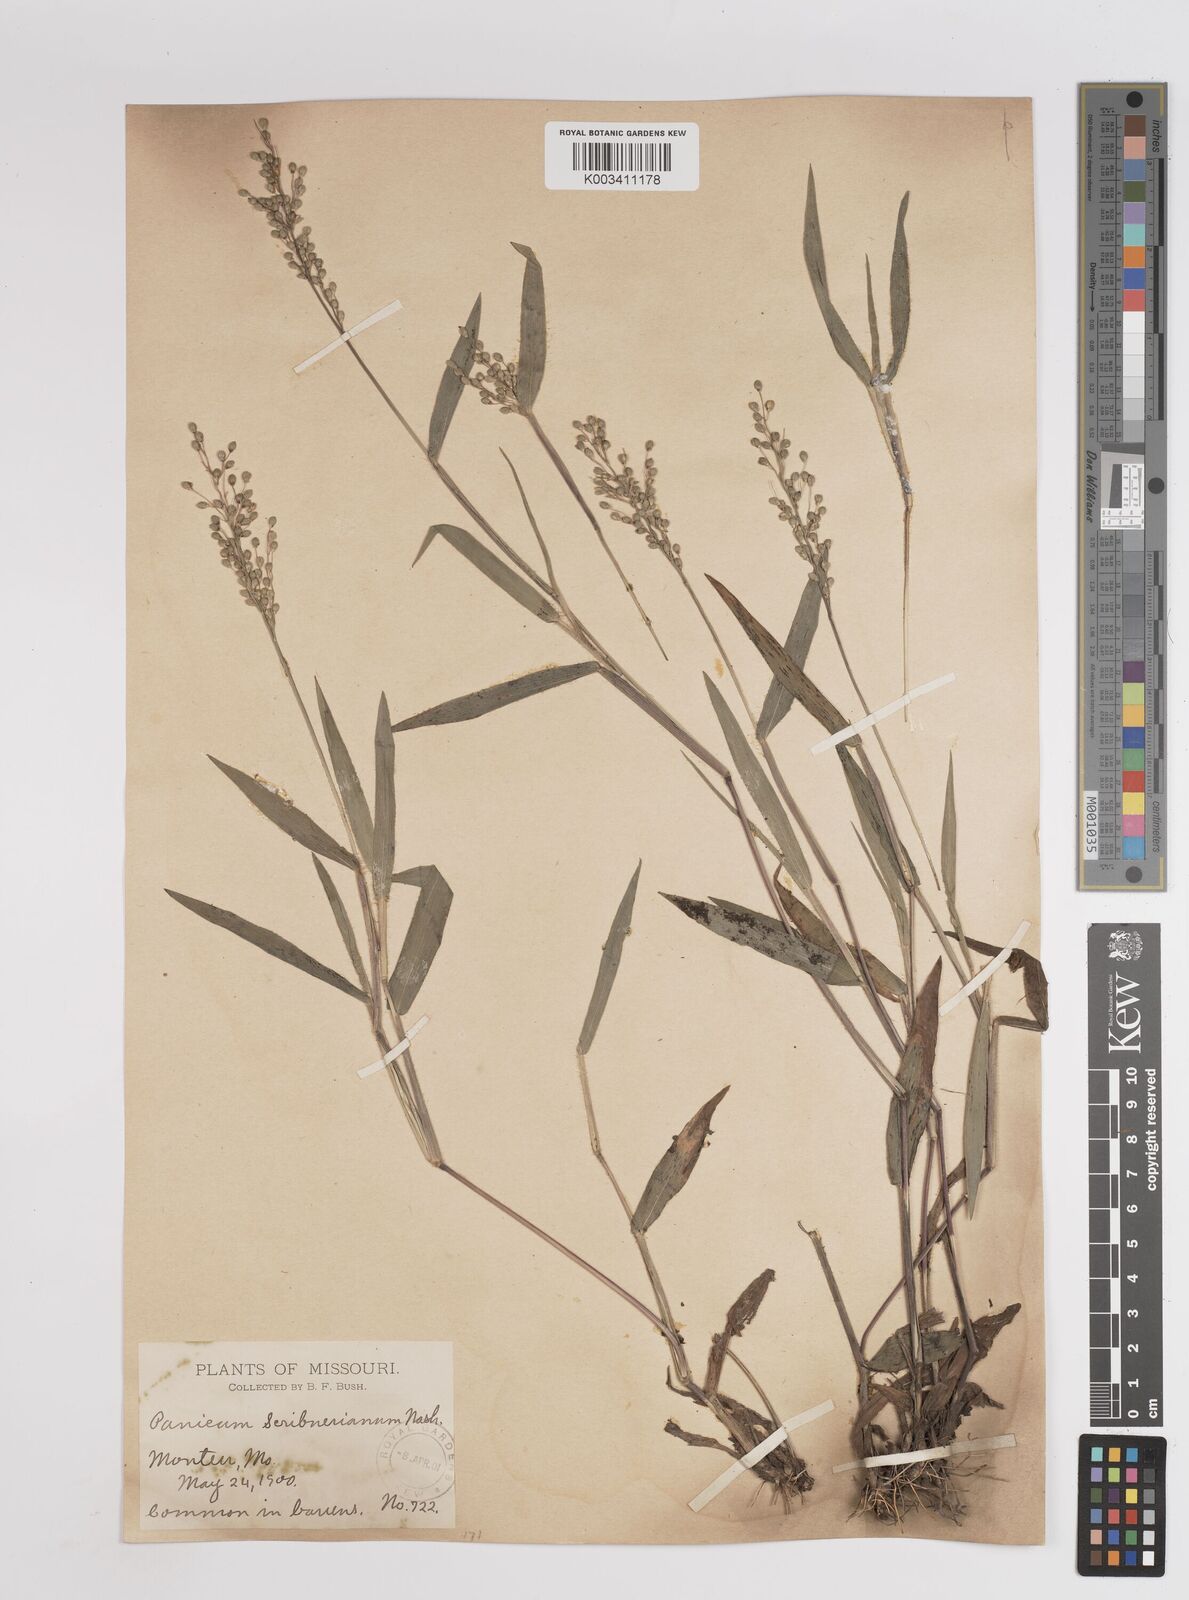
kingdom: Plantae
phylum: Tracheophyta
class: Liliopsida
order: Poales
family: Poaceae
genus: Dichanthelium
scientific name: Dichanthelium scribnerianum
